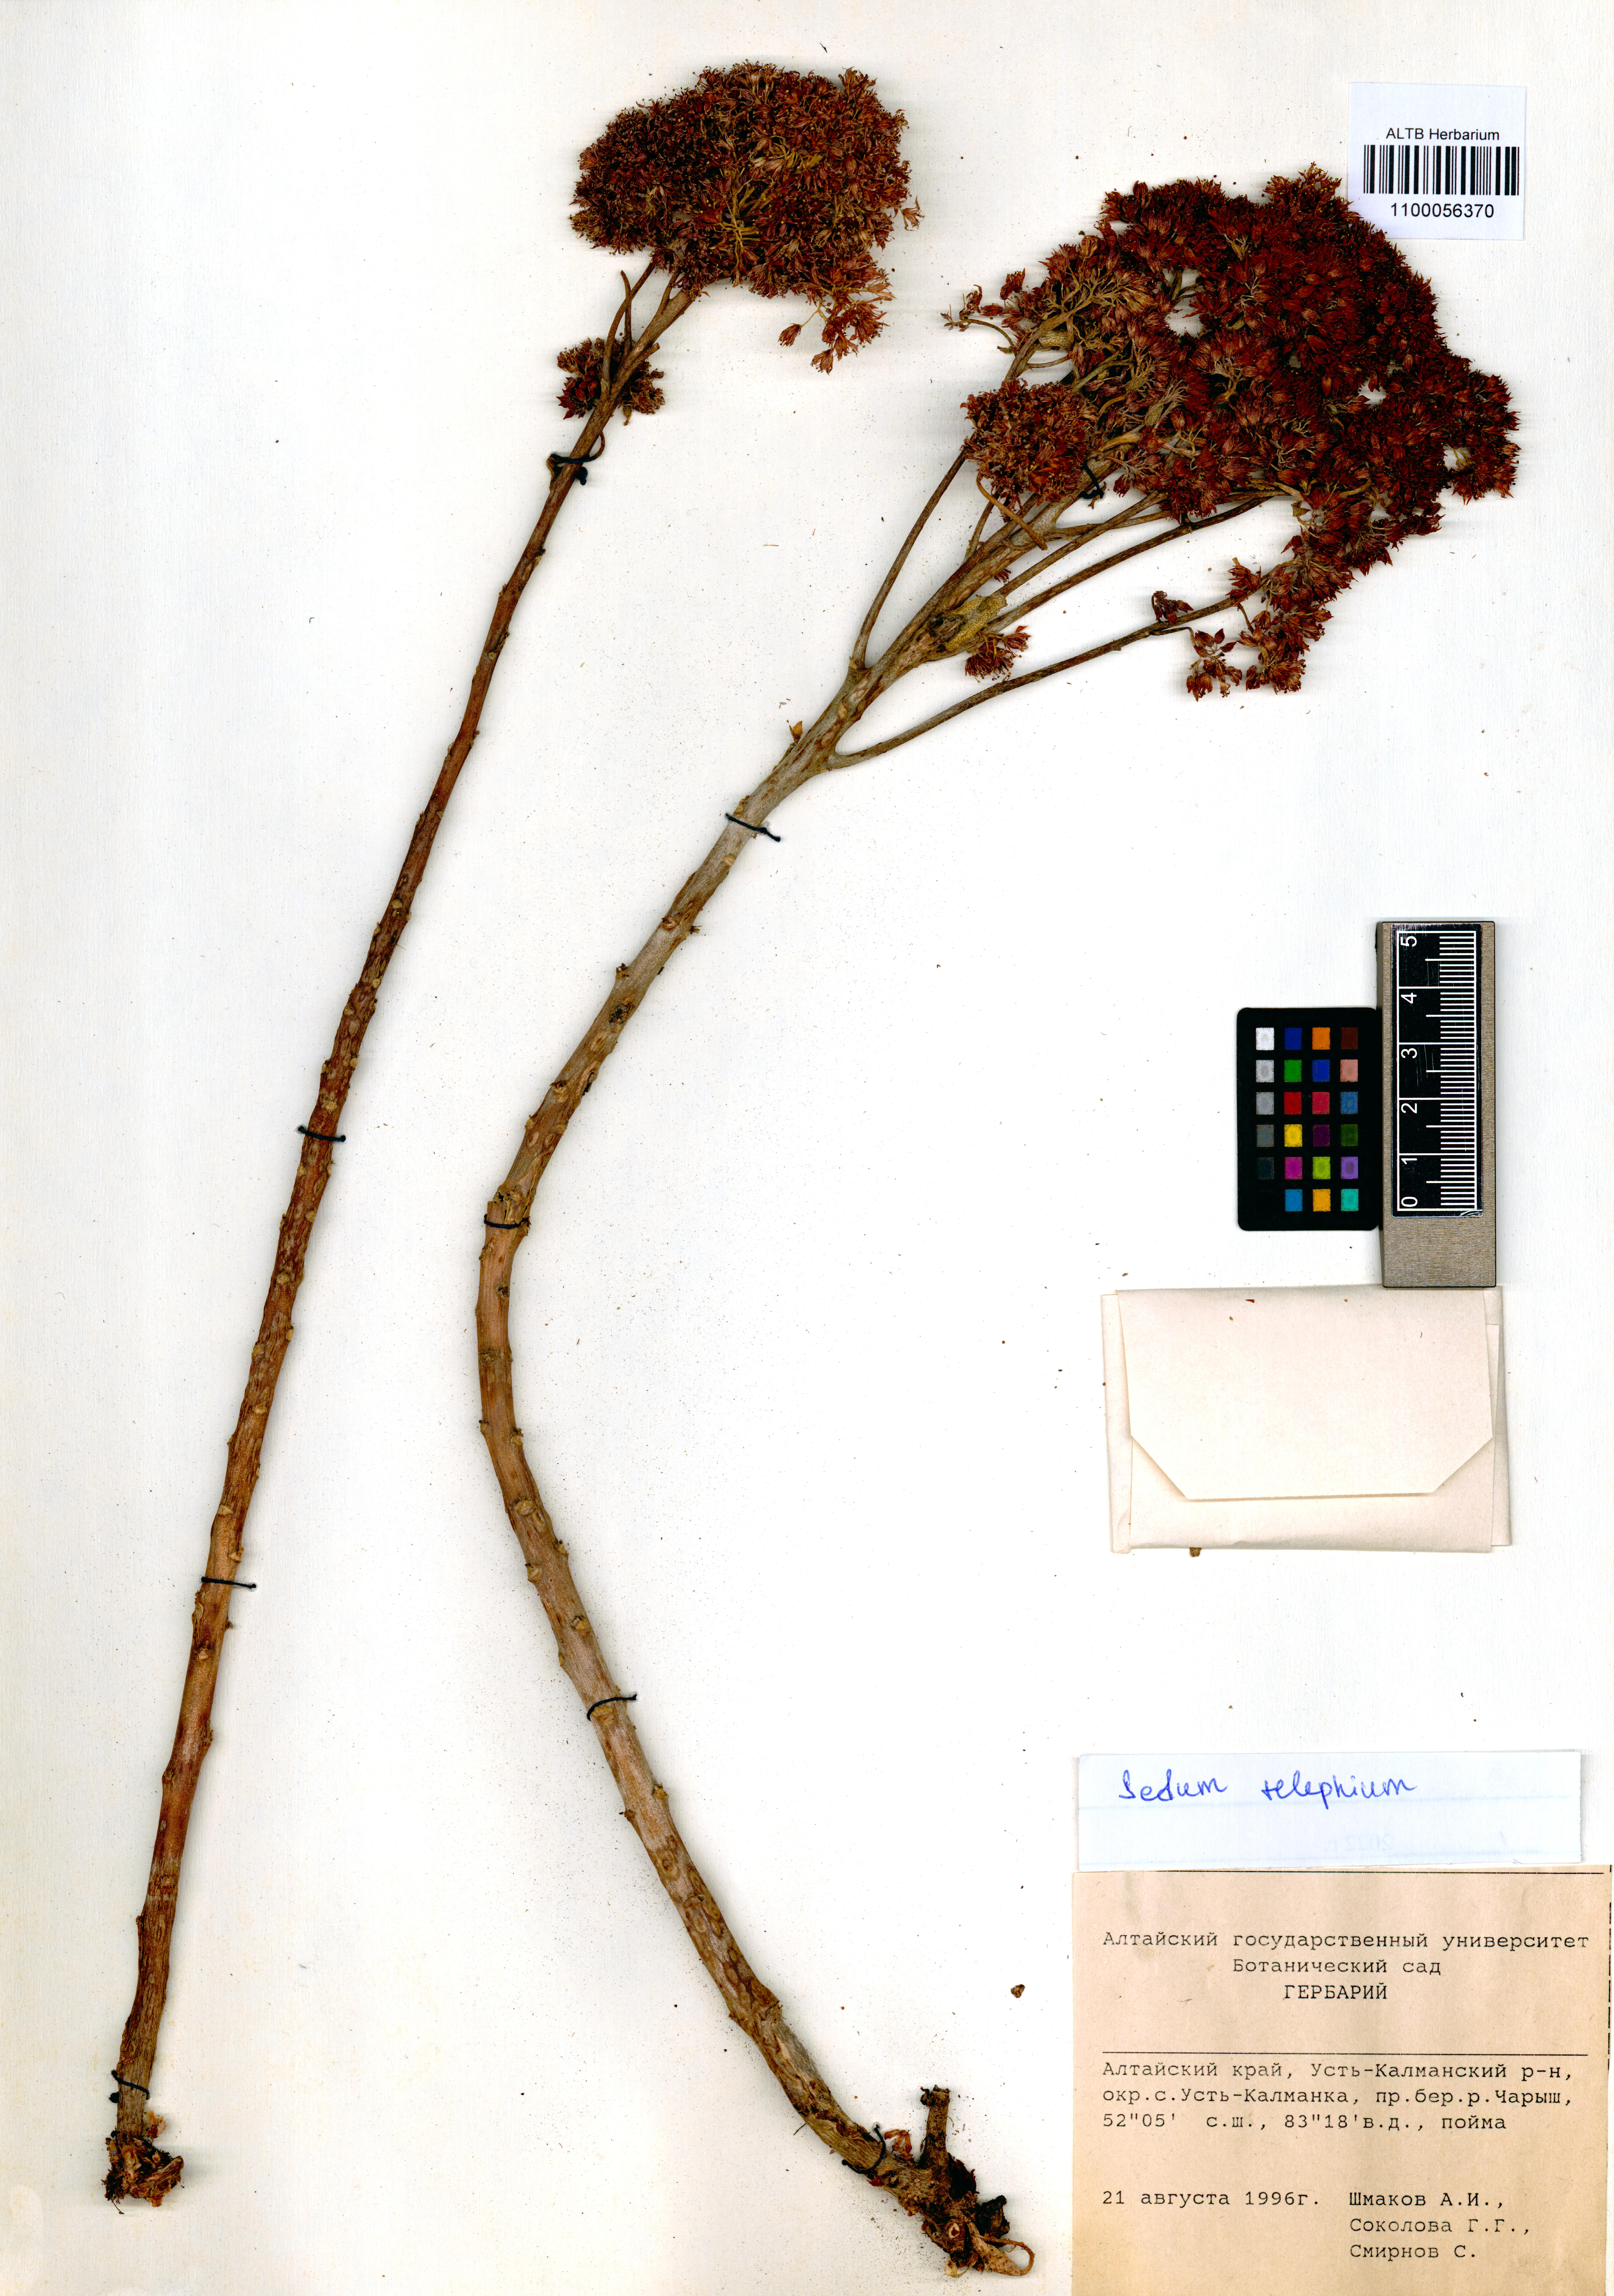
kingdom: Plantae
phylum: Tracheophyta
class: Magnoliopsida
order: Saxifragales
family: Crassulaceae
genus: Hylotelephium
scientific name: Hylotelephium telephium
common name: Live-forever
